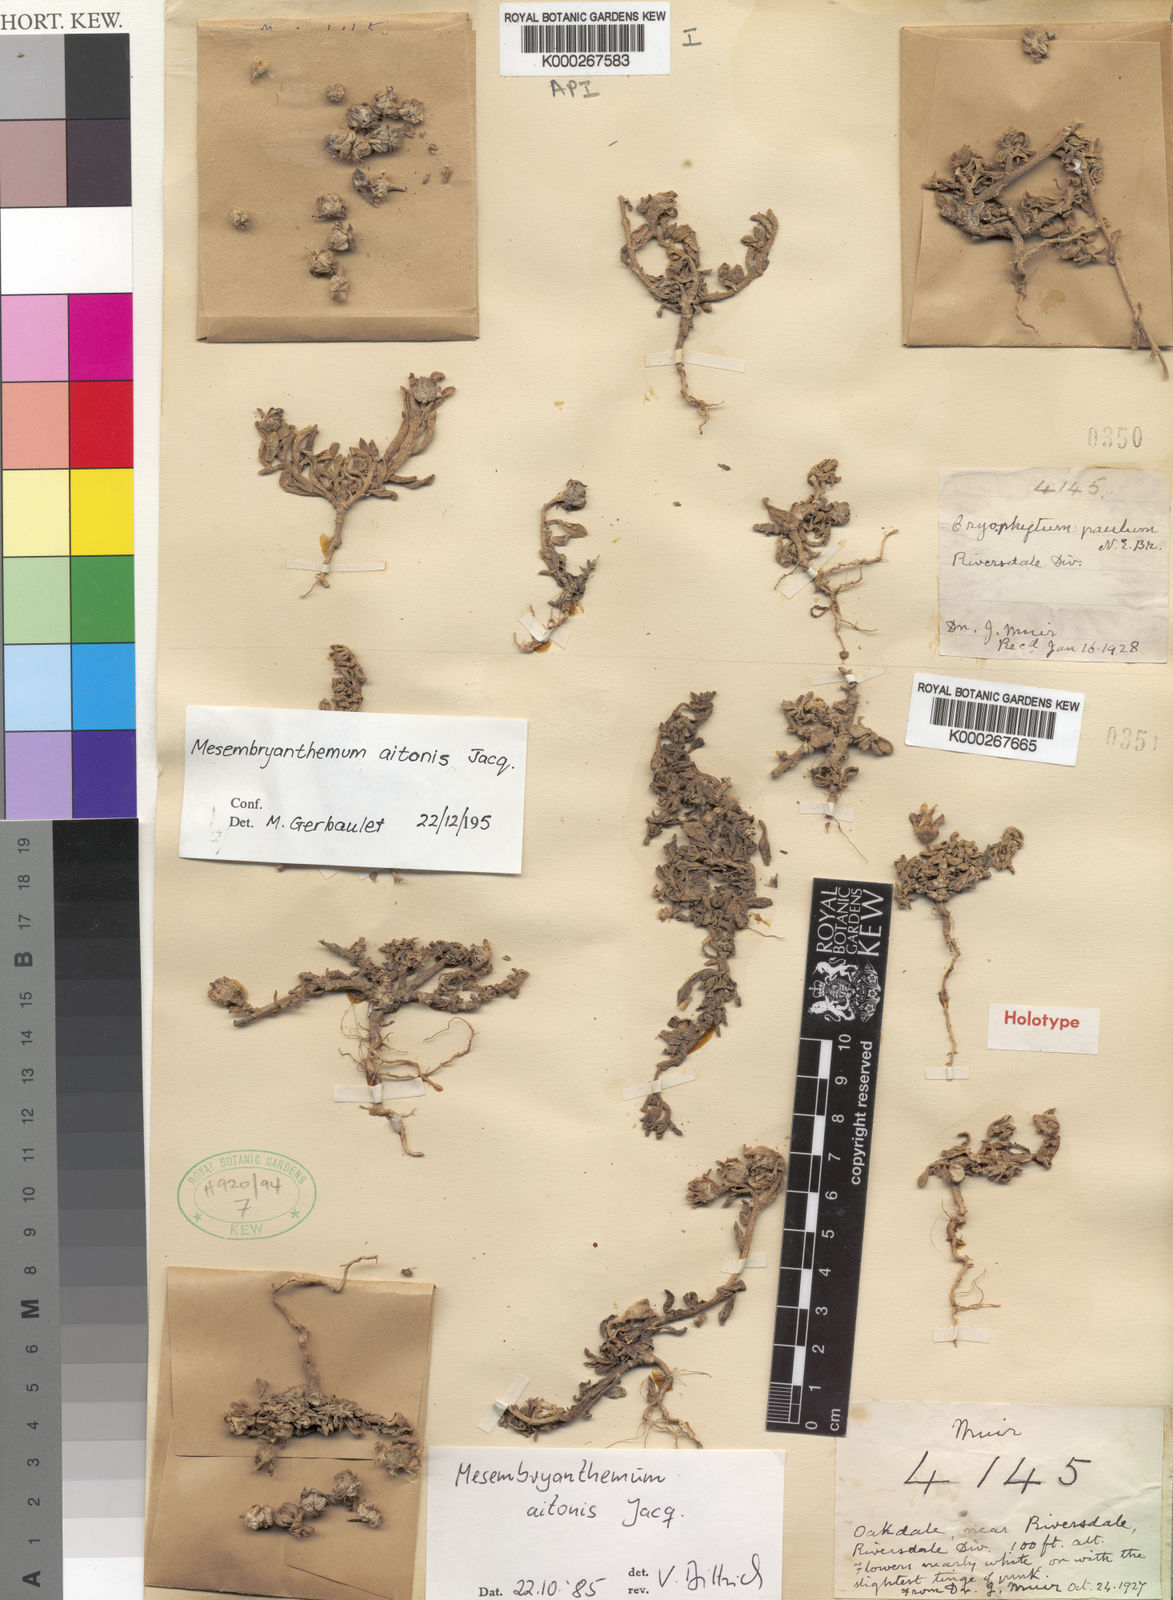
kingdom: Plantae
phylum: Tracheophyta
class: Magnoliopsida
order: Caryophyllales
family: Aizoaceae
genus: Mesembryanthemum
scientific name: Mesembryanthemum aitonis
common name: Angled iceplant
